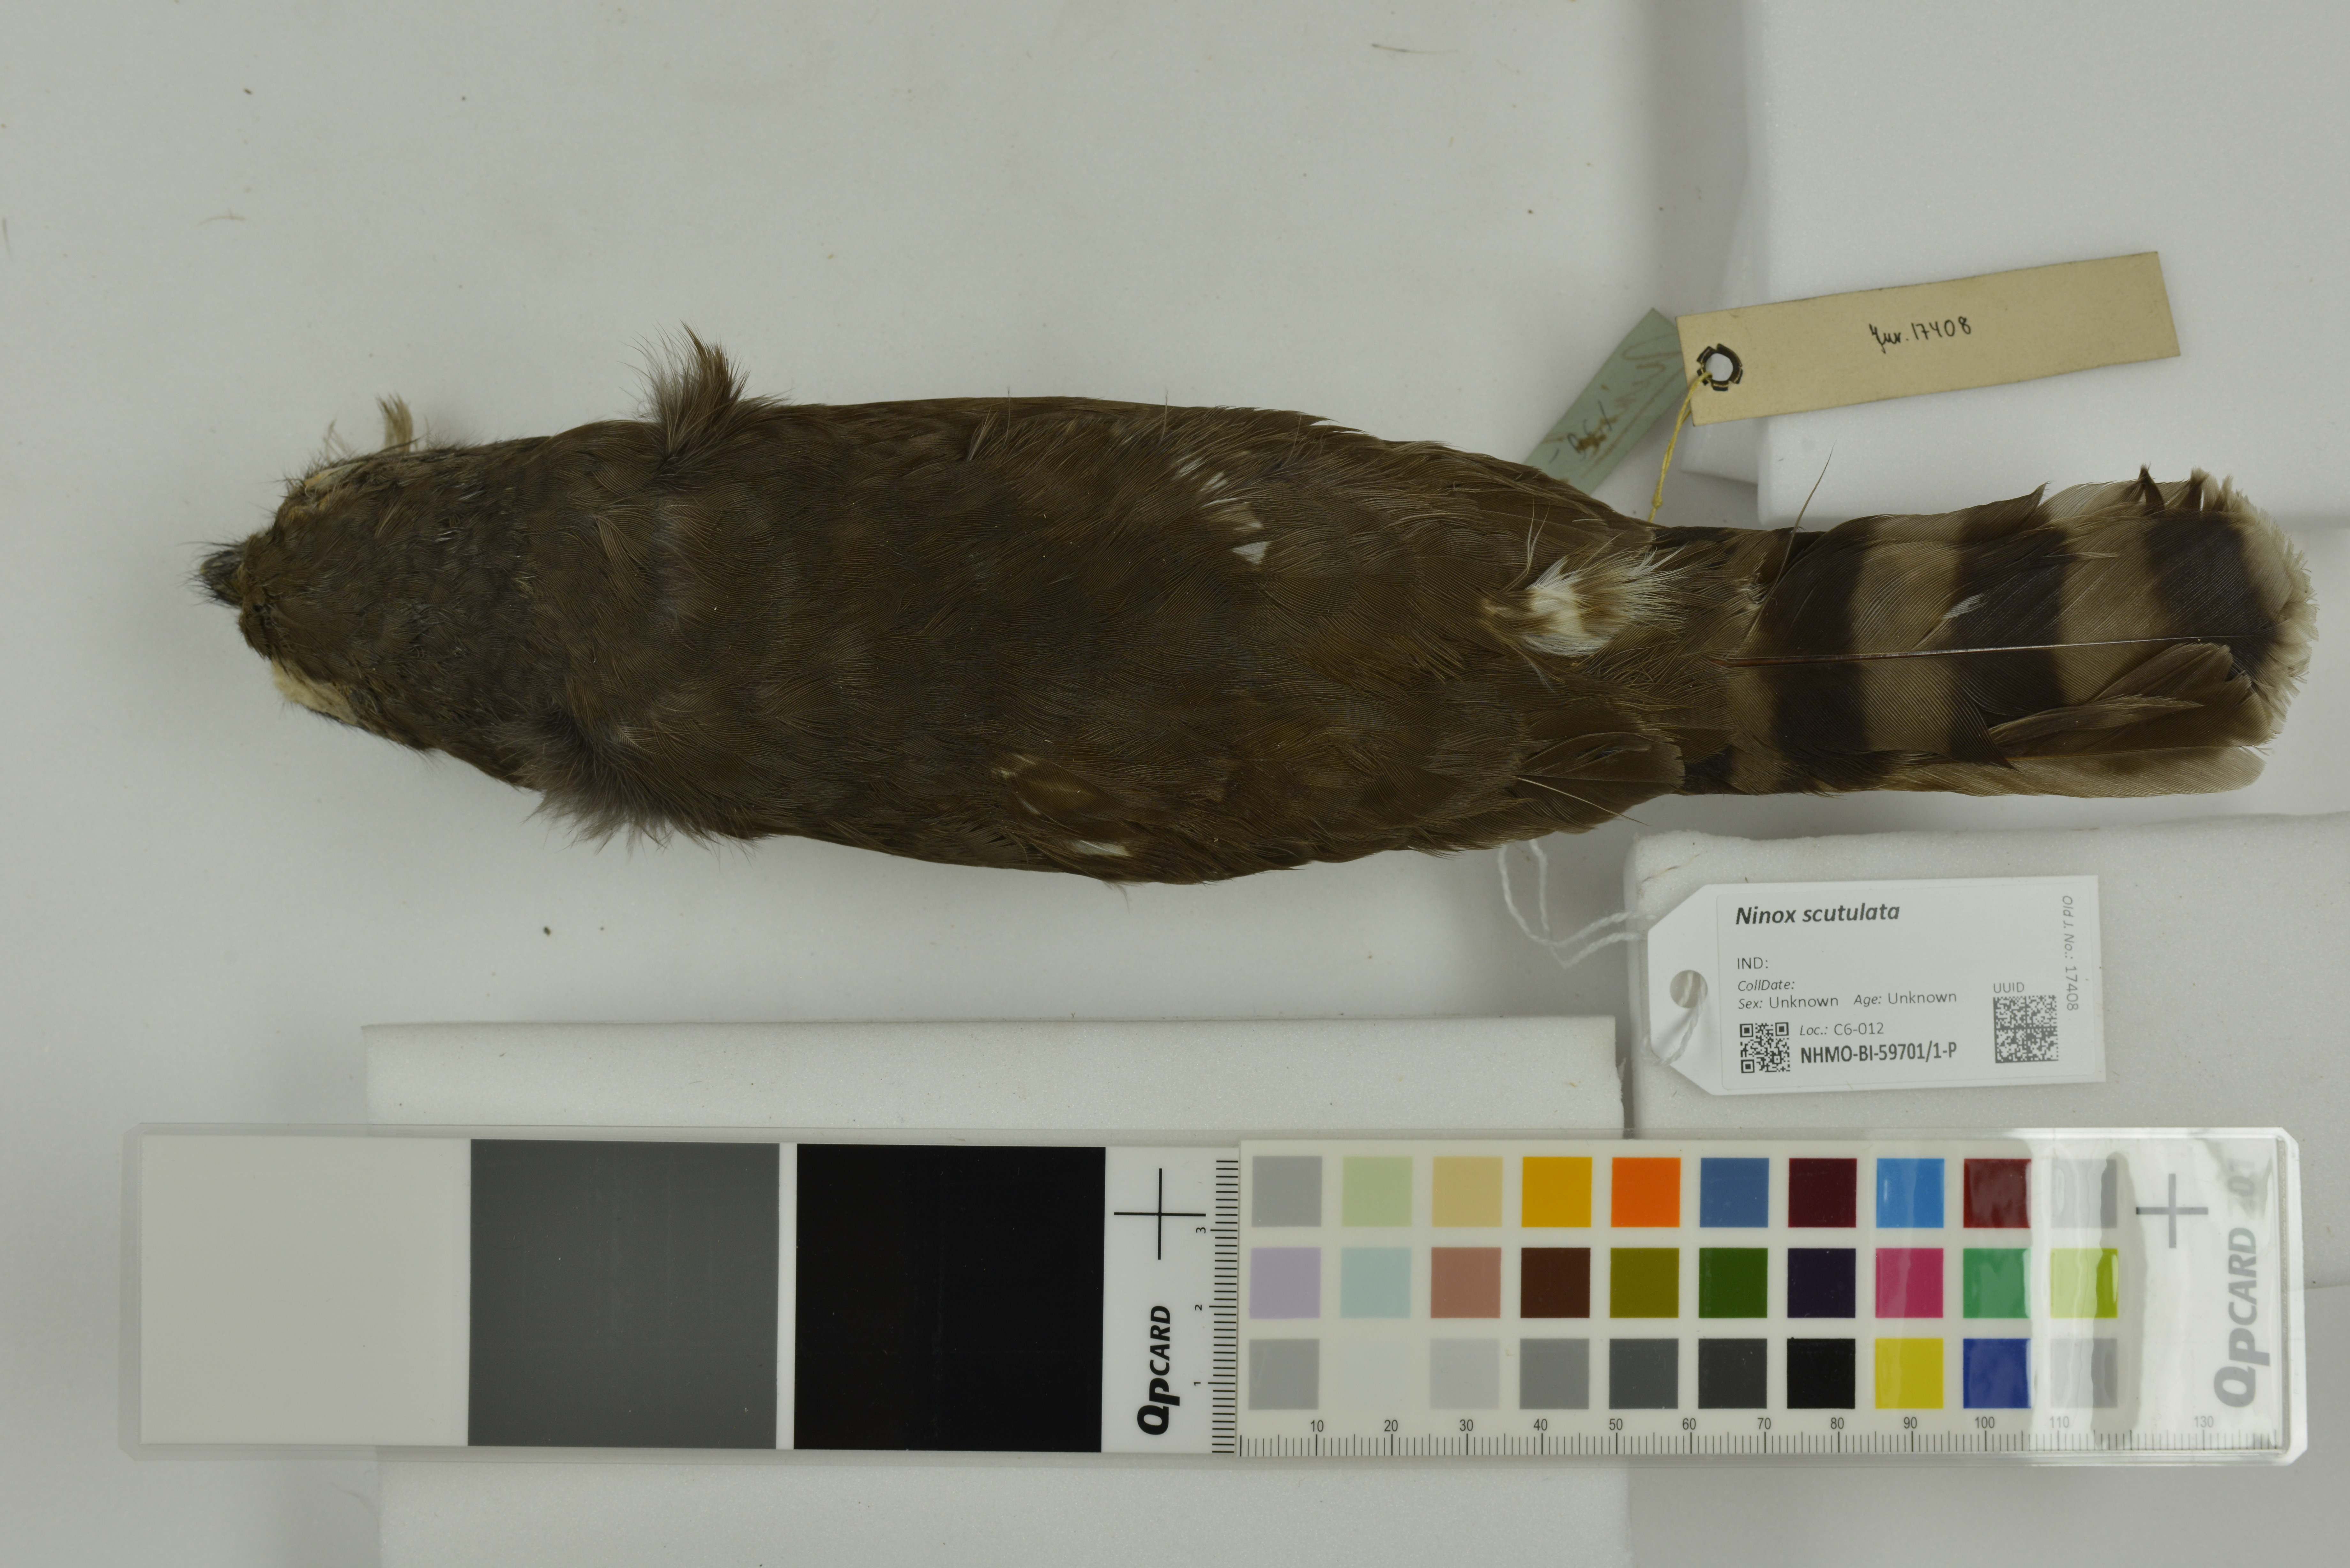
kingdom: Animalia
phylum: Chordata
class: Aves
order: Strigiformes
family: Strigidae
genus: Ninox
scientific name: Ninox scutulata
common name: Brown hawk-owl
